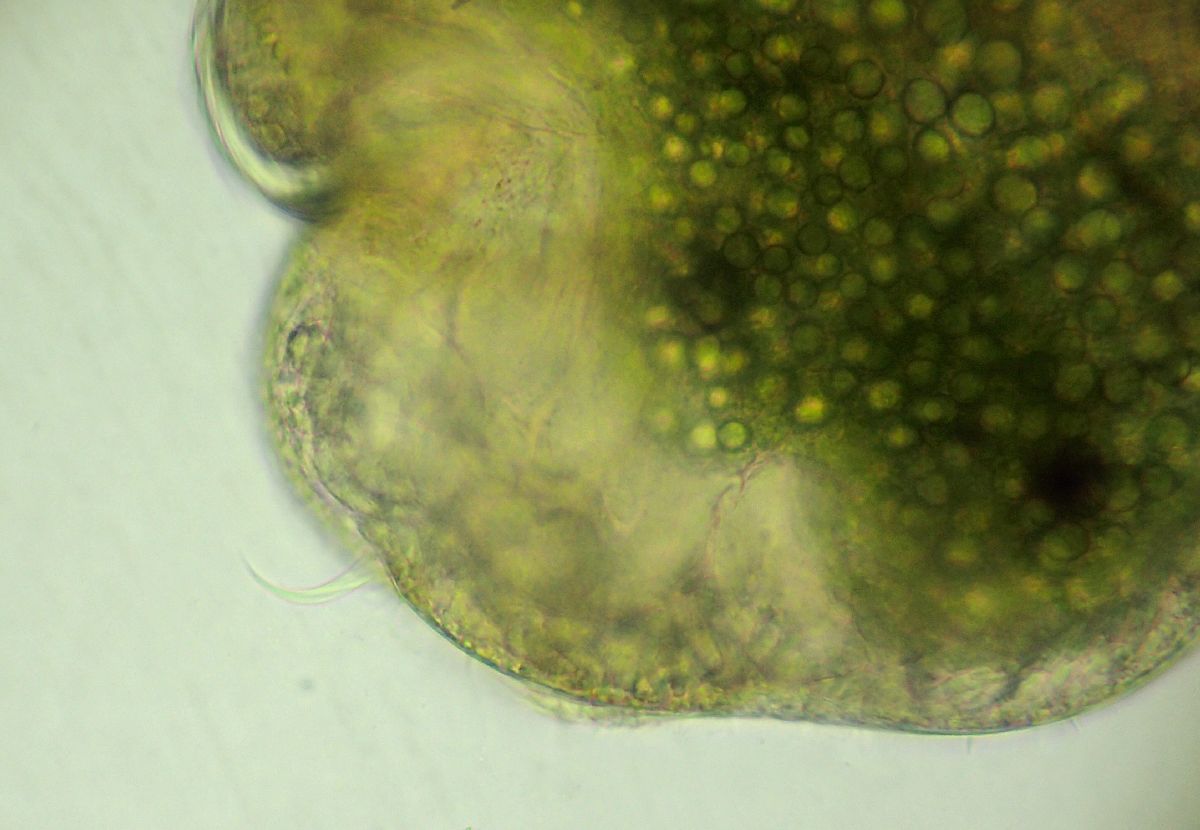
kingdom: Animalia
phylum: Annelida
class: Polychaeta
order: Phyllodocida
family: Phyllodocidae
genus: Phyllodoce
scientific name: Phyllodoce maculata
